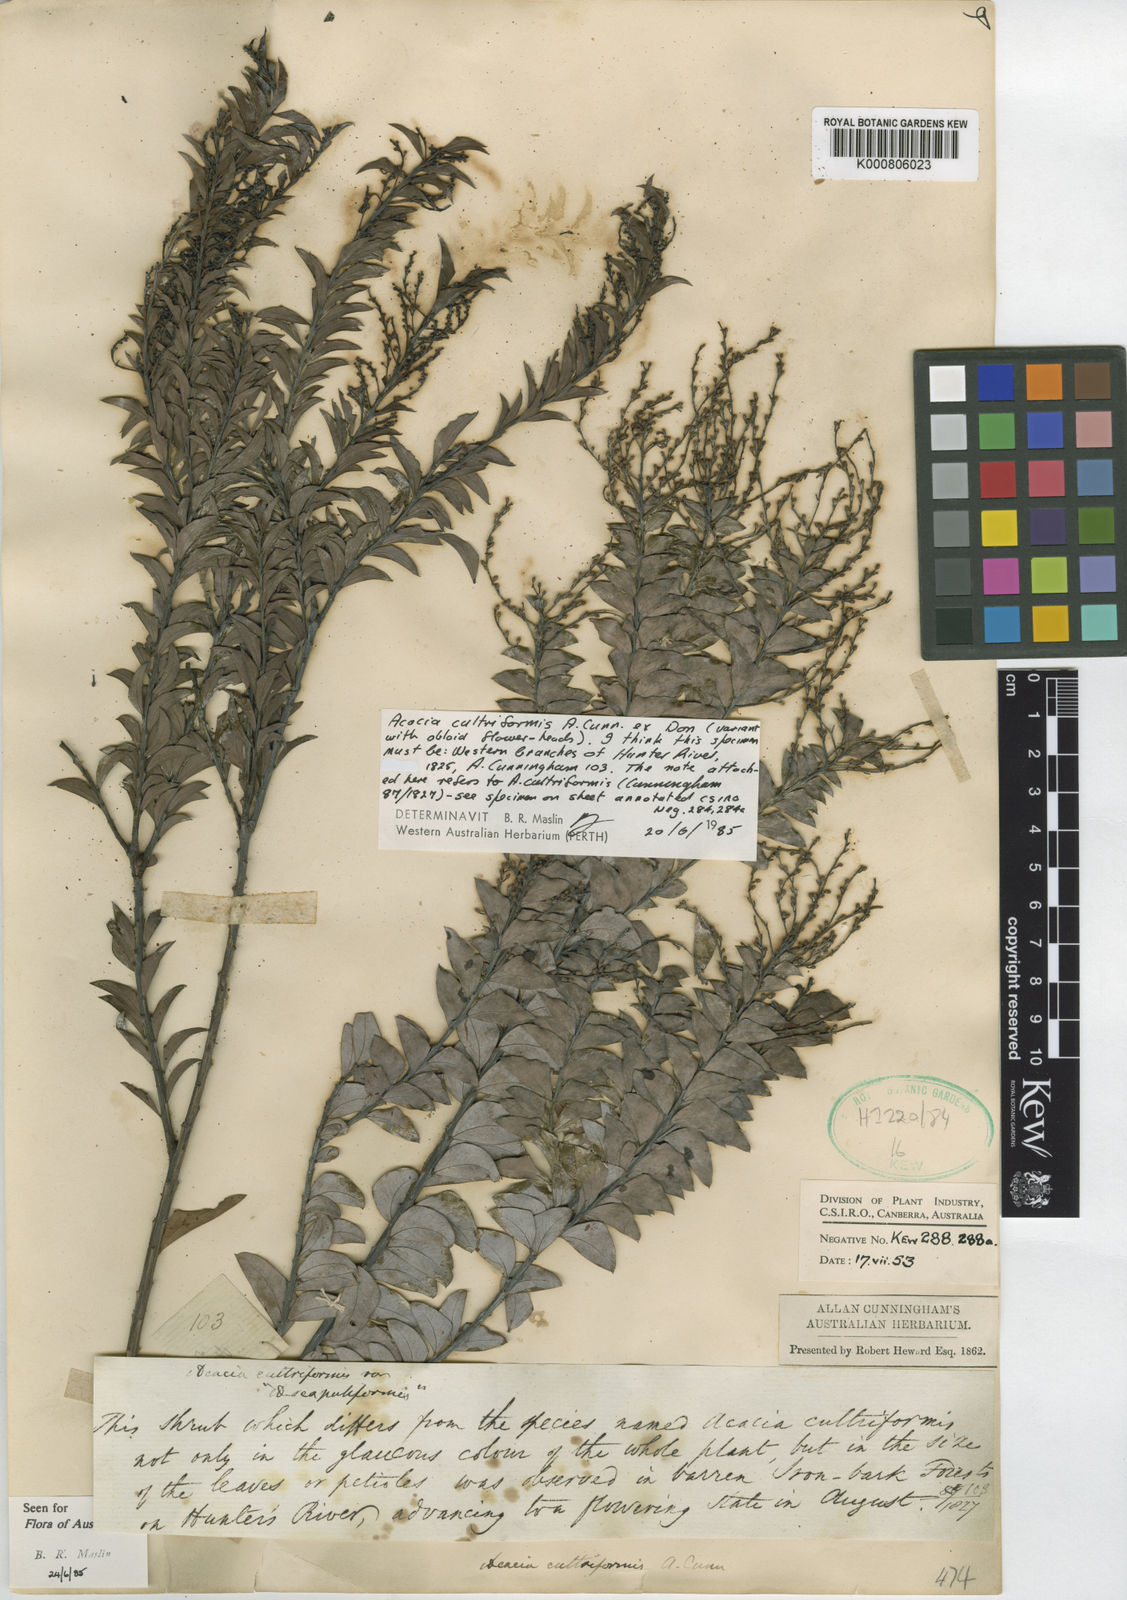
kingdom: Plantae
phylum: Tracheophyta
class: Magnoliopsida
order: Fabales
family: Fabaceae
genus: Acacia
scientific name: Acacia
